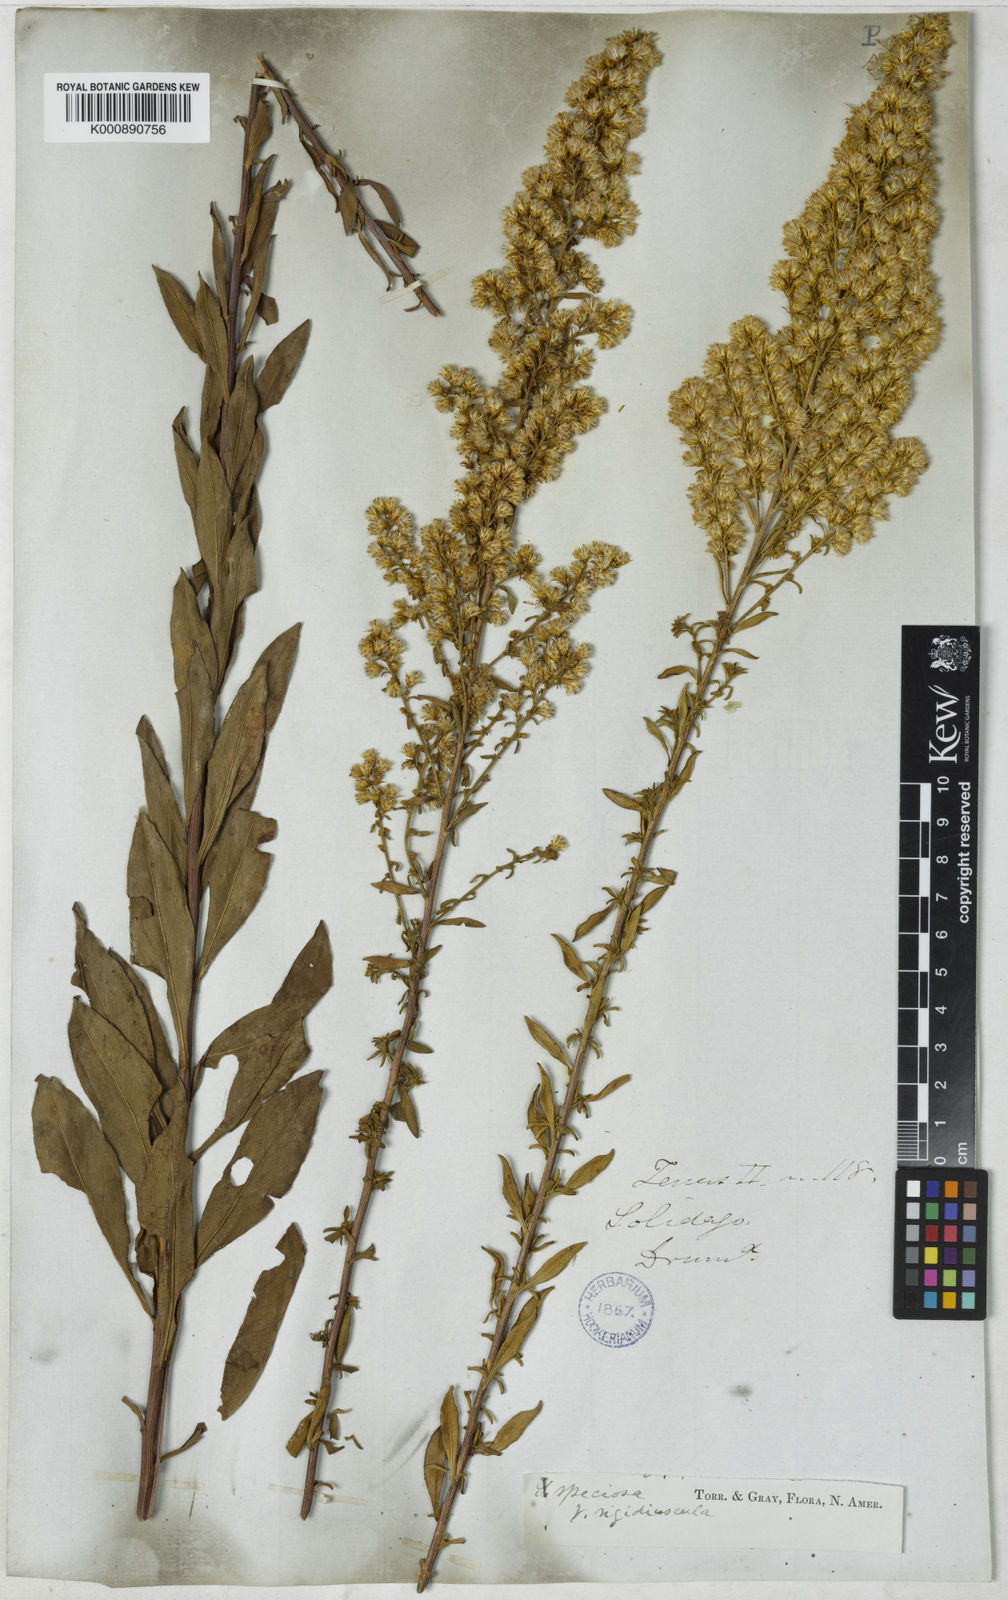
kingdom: Plantae
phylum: Tracheophyta
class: Magnoliopsida
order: Asterales
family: Asteraceae
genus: Solidago
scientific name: Solidago rigidiuscula
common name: Stiff-leaved showy goldenrod
